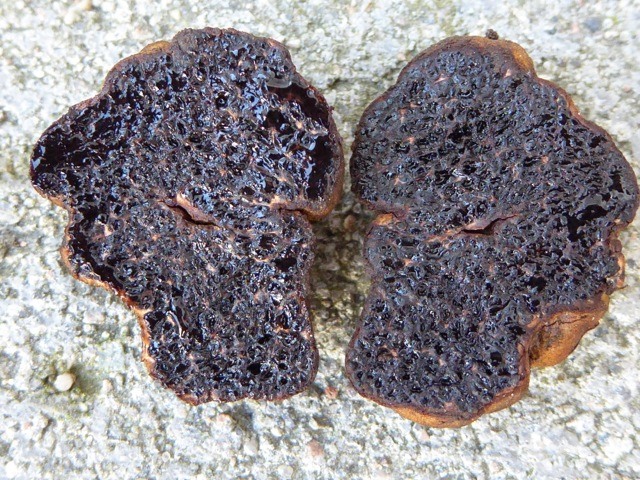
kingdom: Fungi
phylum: Basidiomycota
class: Agaricomycetes
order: Boletales
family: Paxillaceae
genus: Melanogaster
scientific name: Melanogaster broomeanus
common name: Bath truffle
